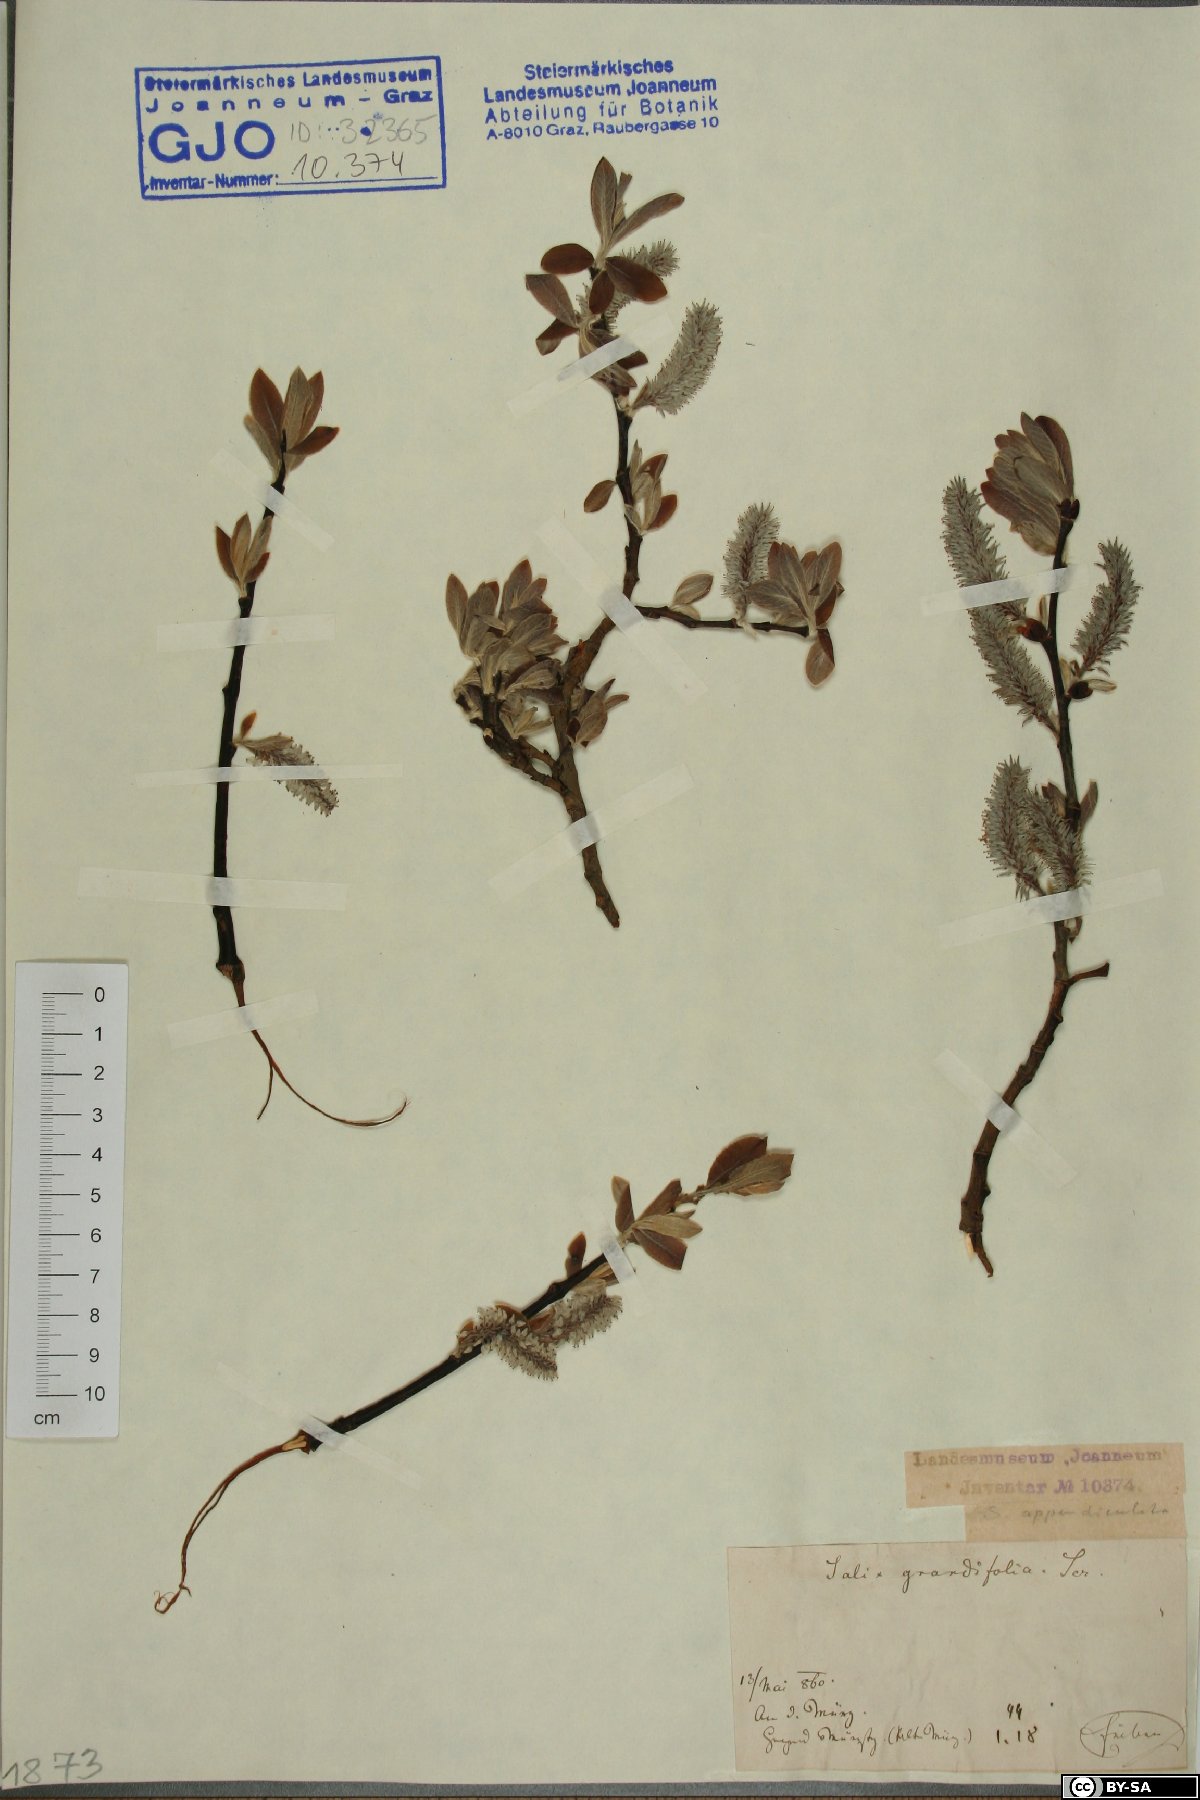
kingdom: Plantae
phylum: Tracheophyta
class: Magnoliopsida
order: Malpighiales
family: Salicaceae
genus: Salix
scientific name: Salix appendiculata
